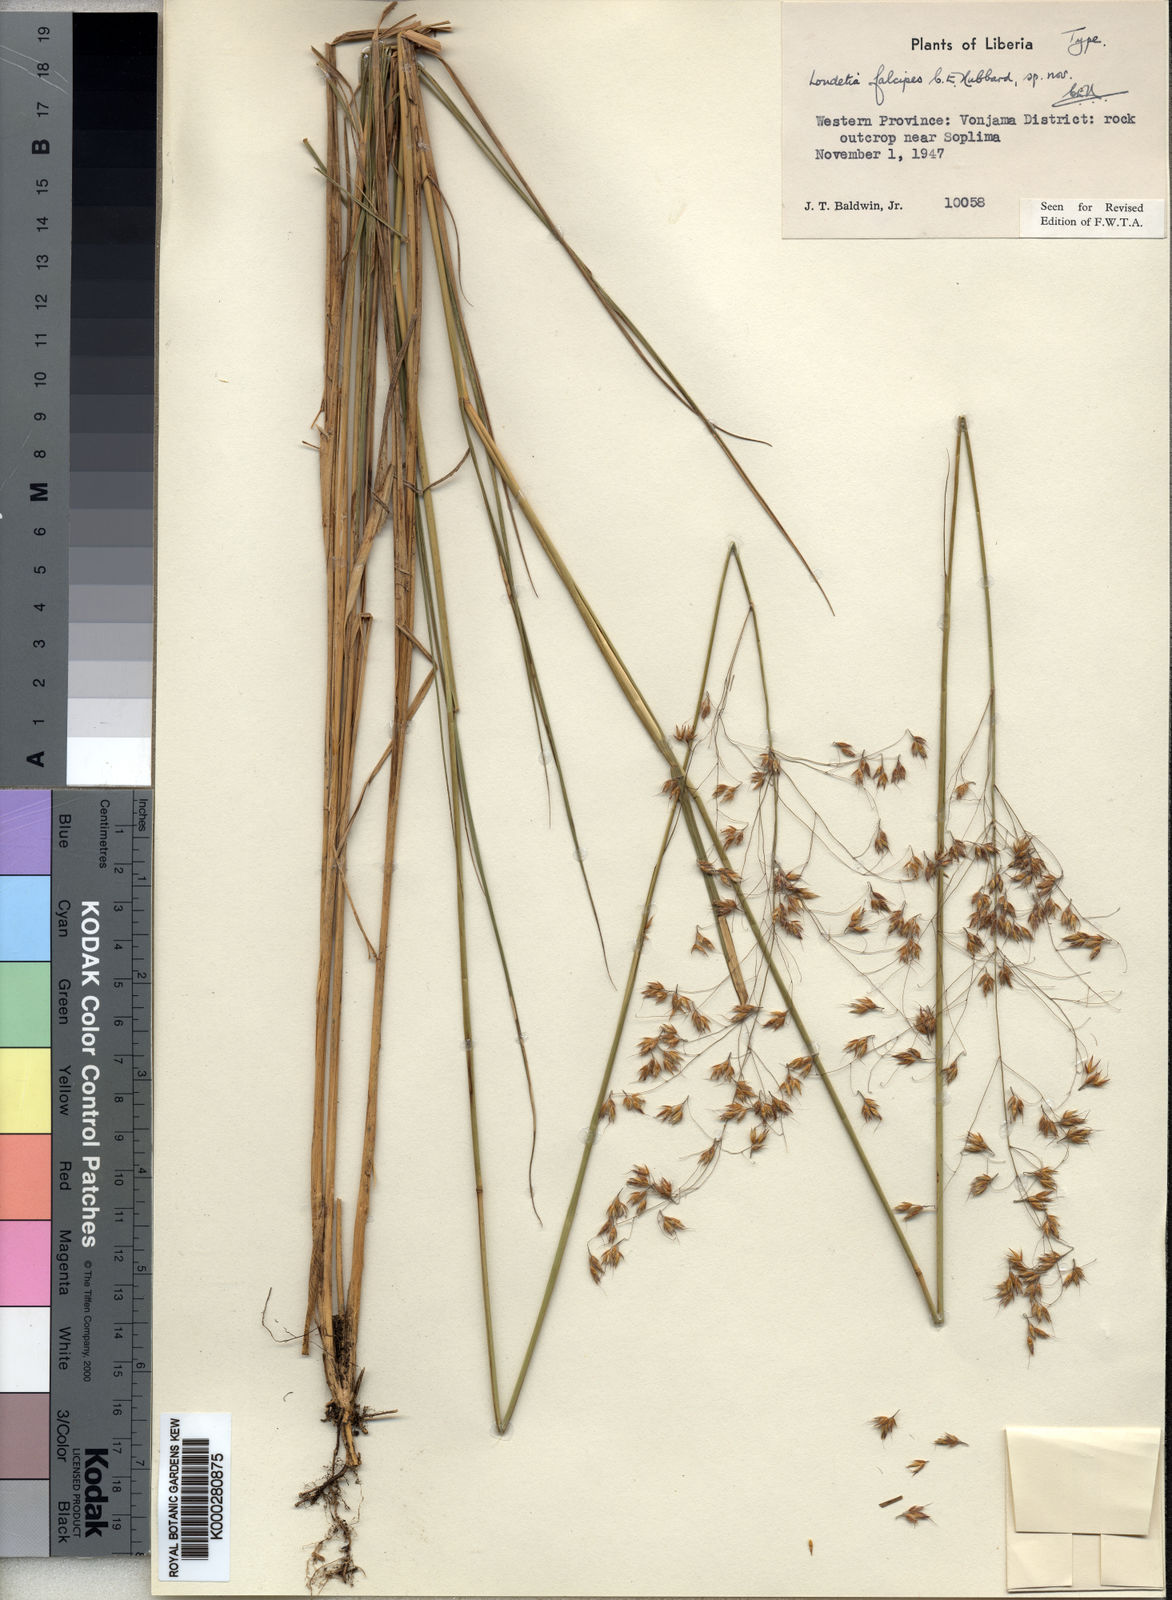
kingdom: Plantae
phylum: Tracheophyta
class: Liliopsida
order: Poales
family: Poaceae
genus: Loudetiopsis
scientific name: Loudetiopsis falcipes
